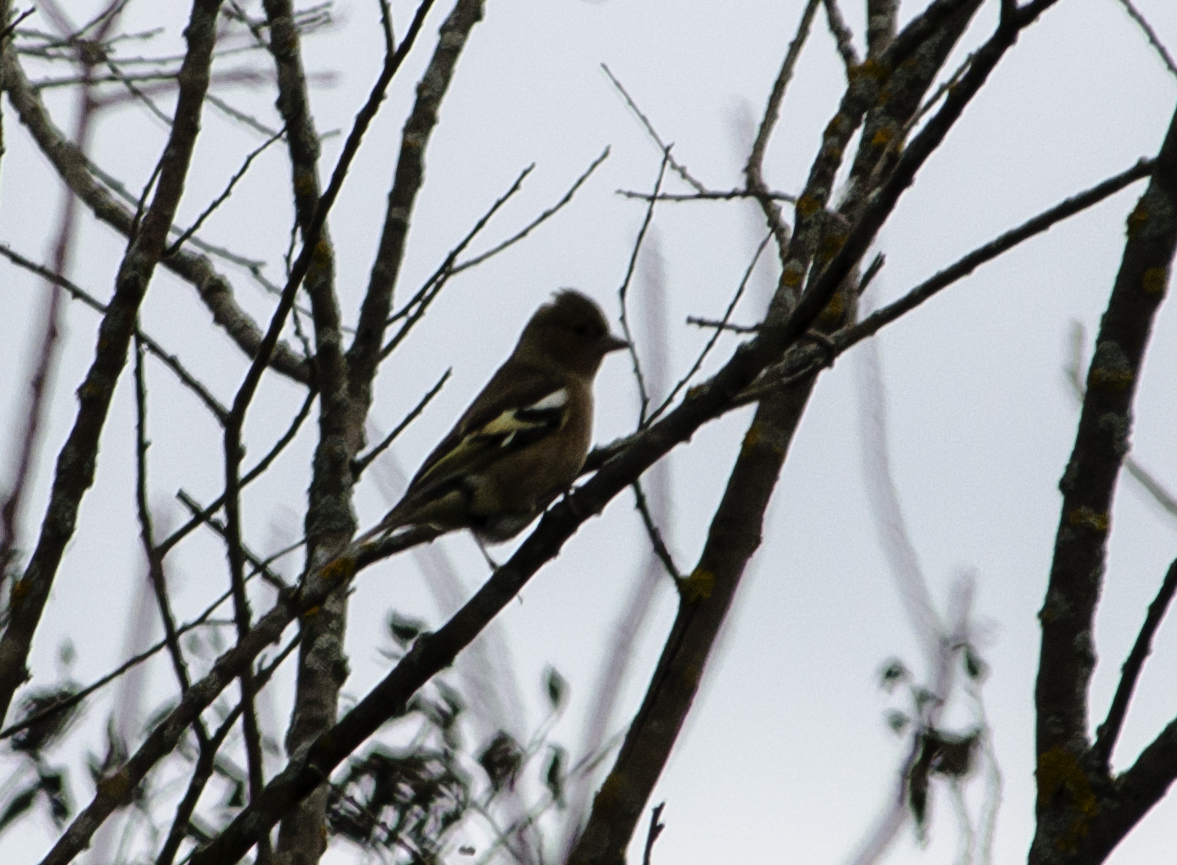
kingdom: Animalia
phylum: Chordata
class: Aves
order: Passeriformes
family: Fringillidae
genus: Fringilla
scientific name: Fringilla coelebs
